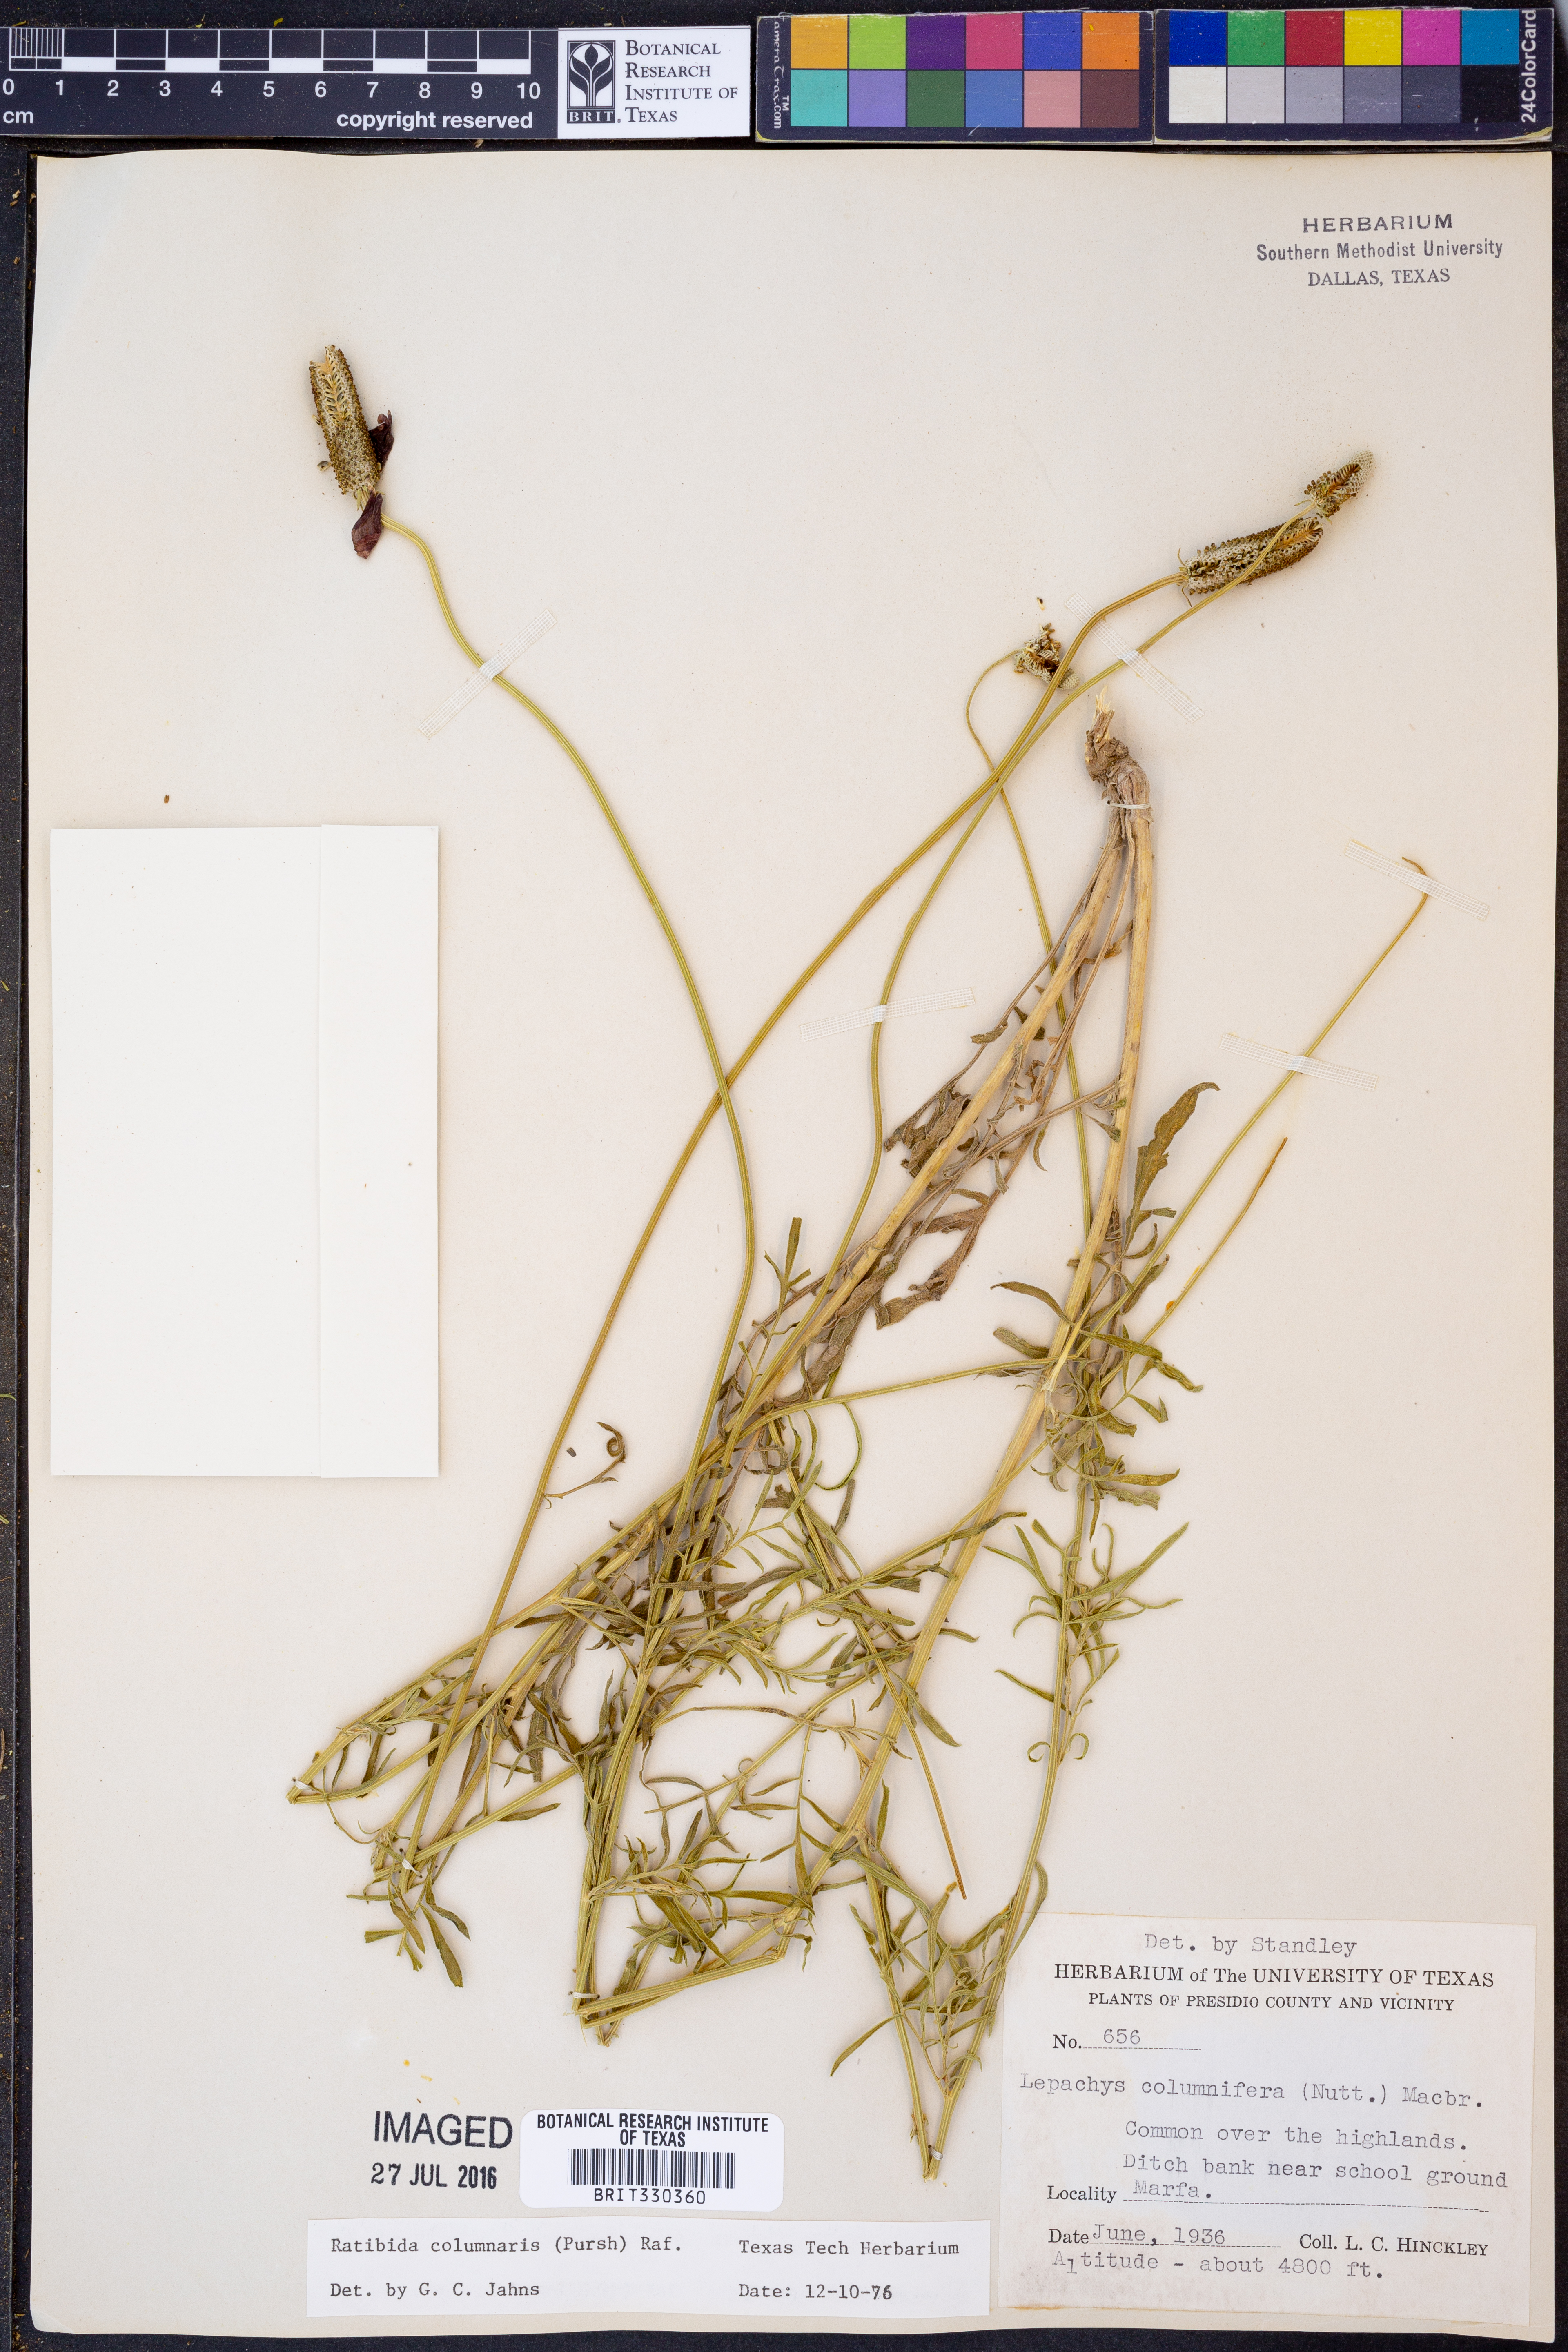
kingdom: Plantae
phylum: Tracheophyta
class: Magnoliopsida
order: Asterales
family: Asteraceae
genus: Ratibida
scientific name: Ratibida columnifera
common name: Prairie coneflower
